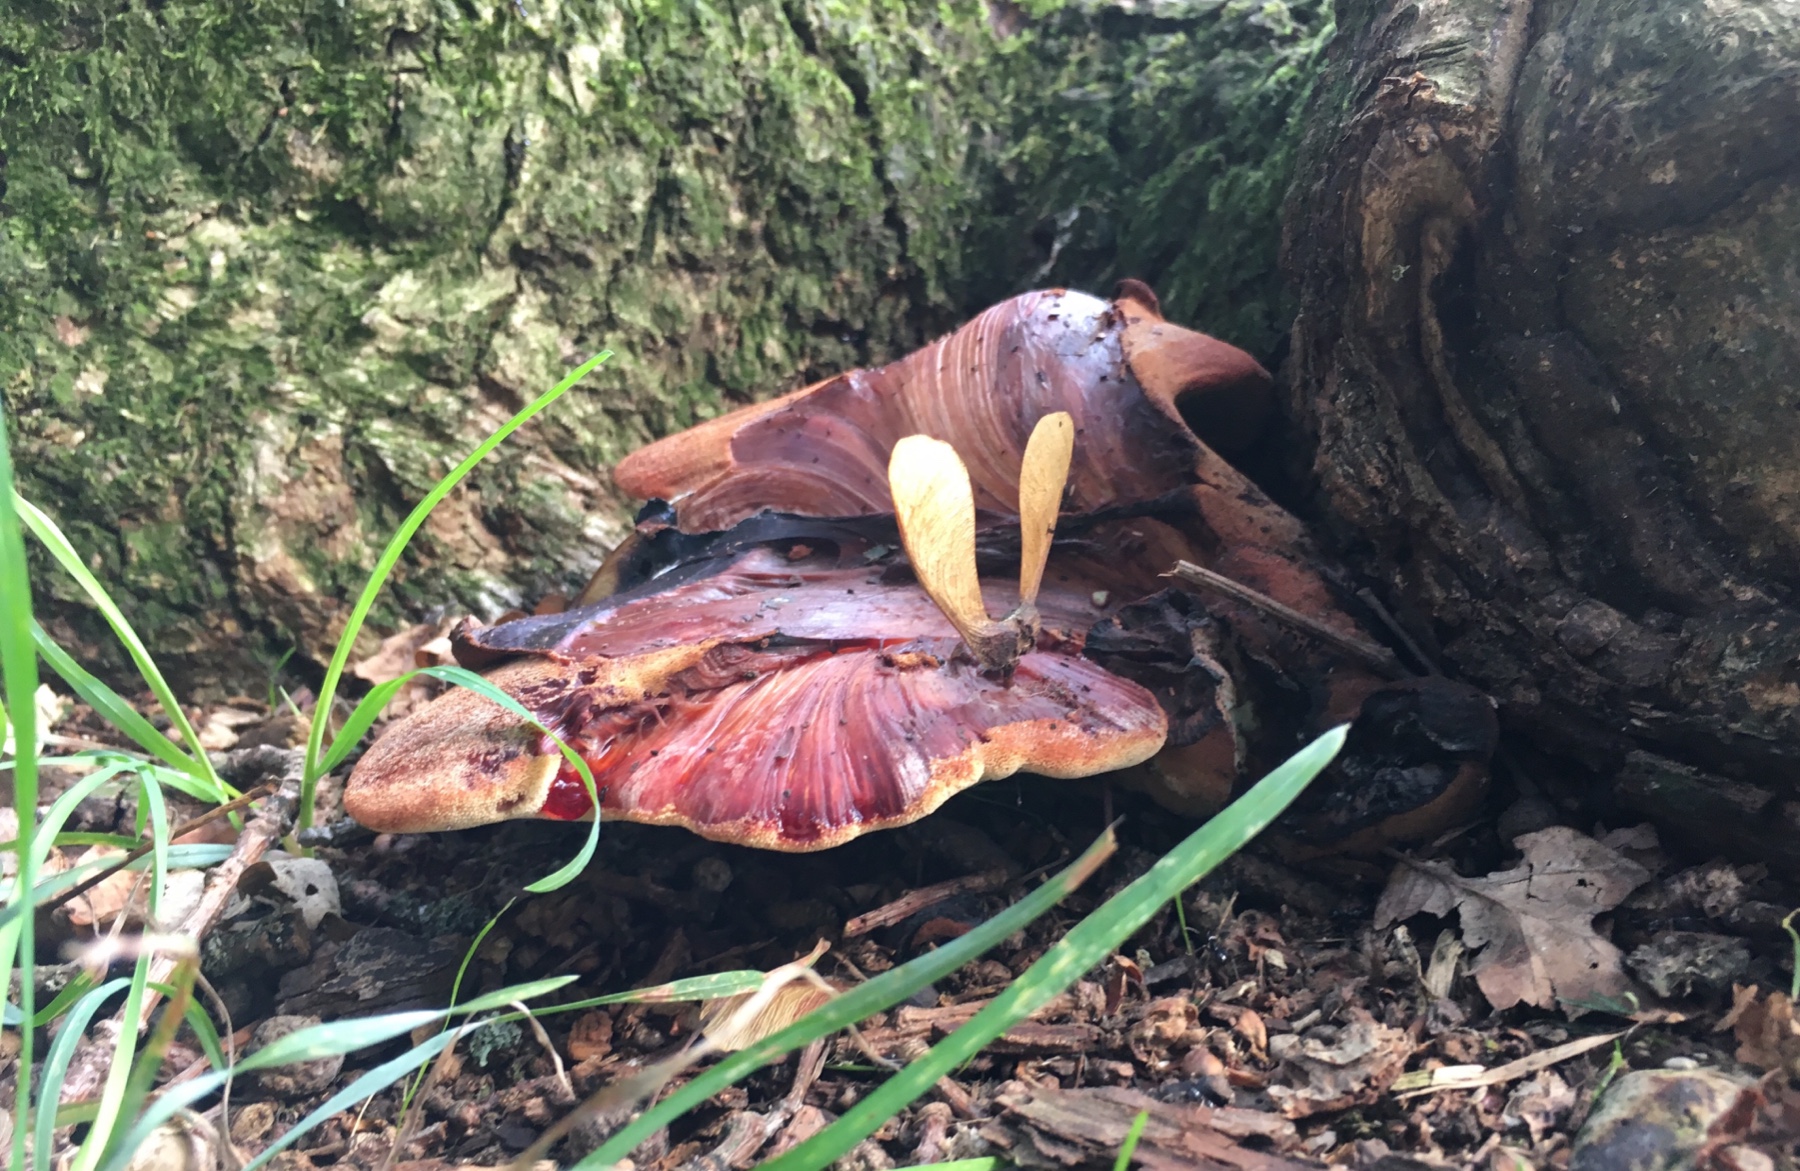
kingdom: Fungi
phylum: Basidiomycota
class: Agaricomycetes
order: Agaricales
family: Fistulinaceae
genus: Fistulina
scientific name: Fistulina hepatica
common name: oksetunge
